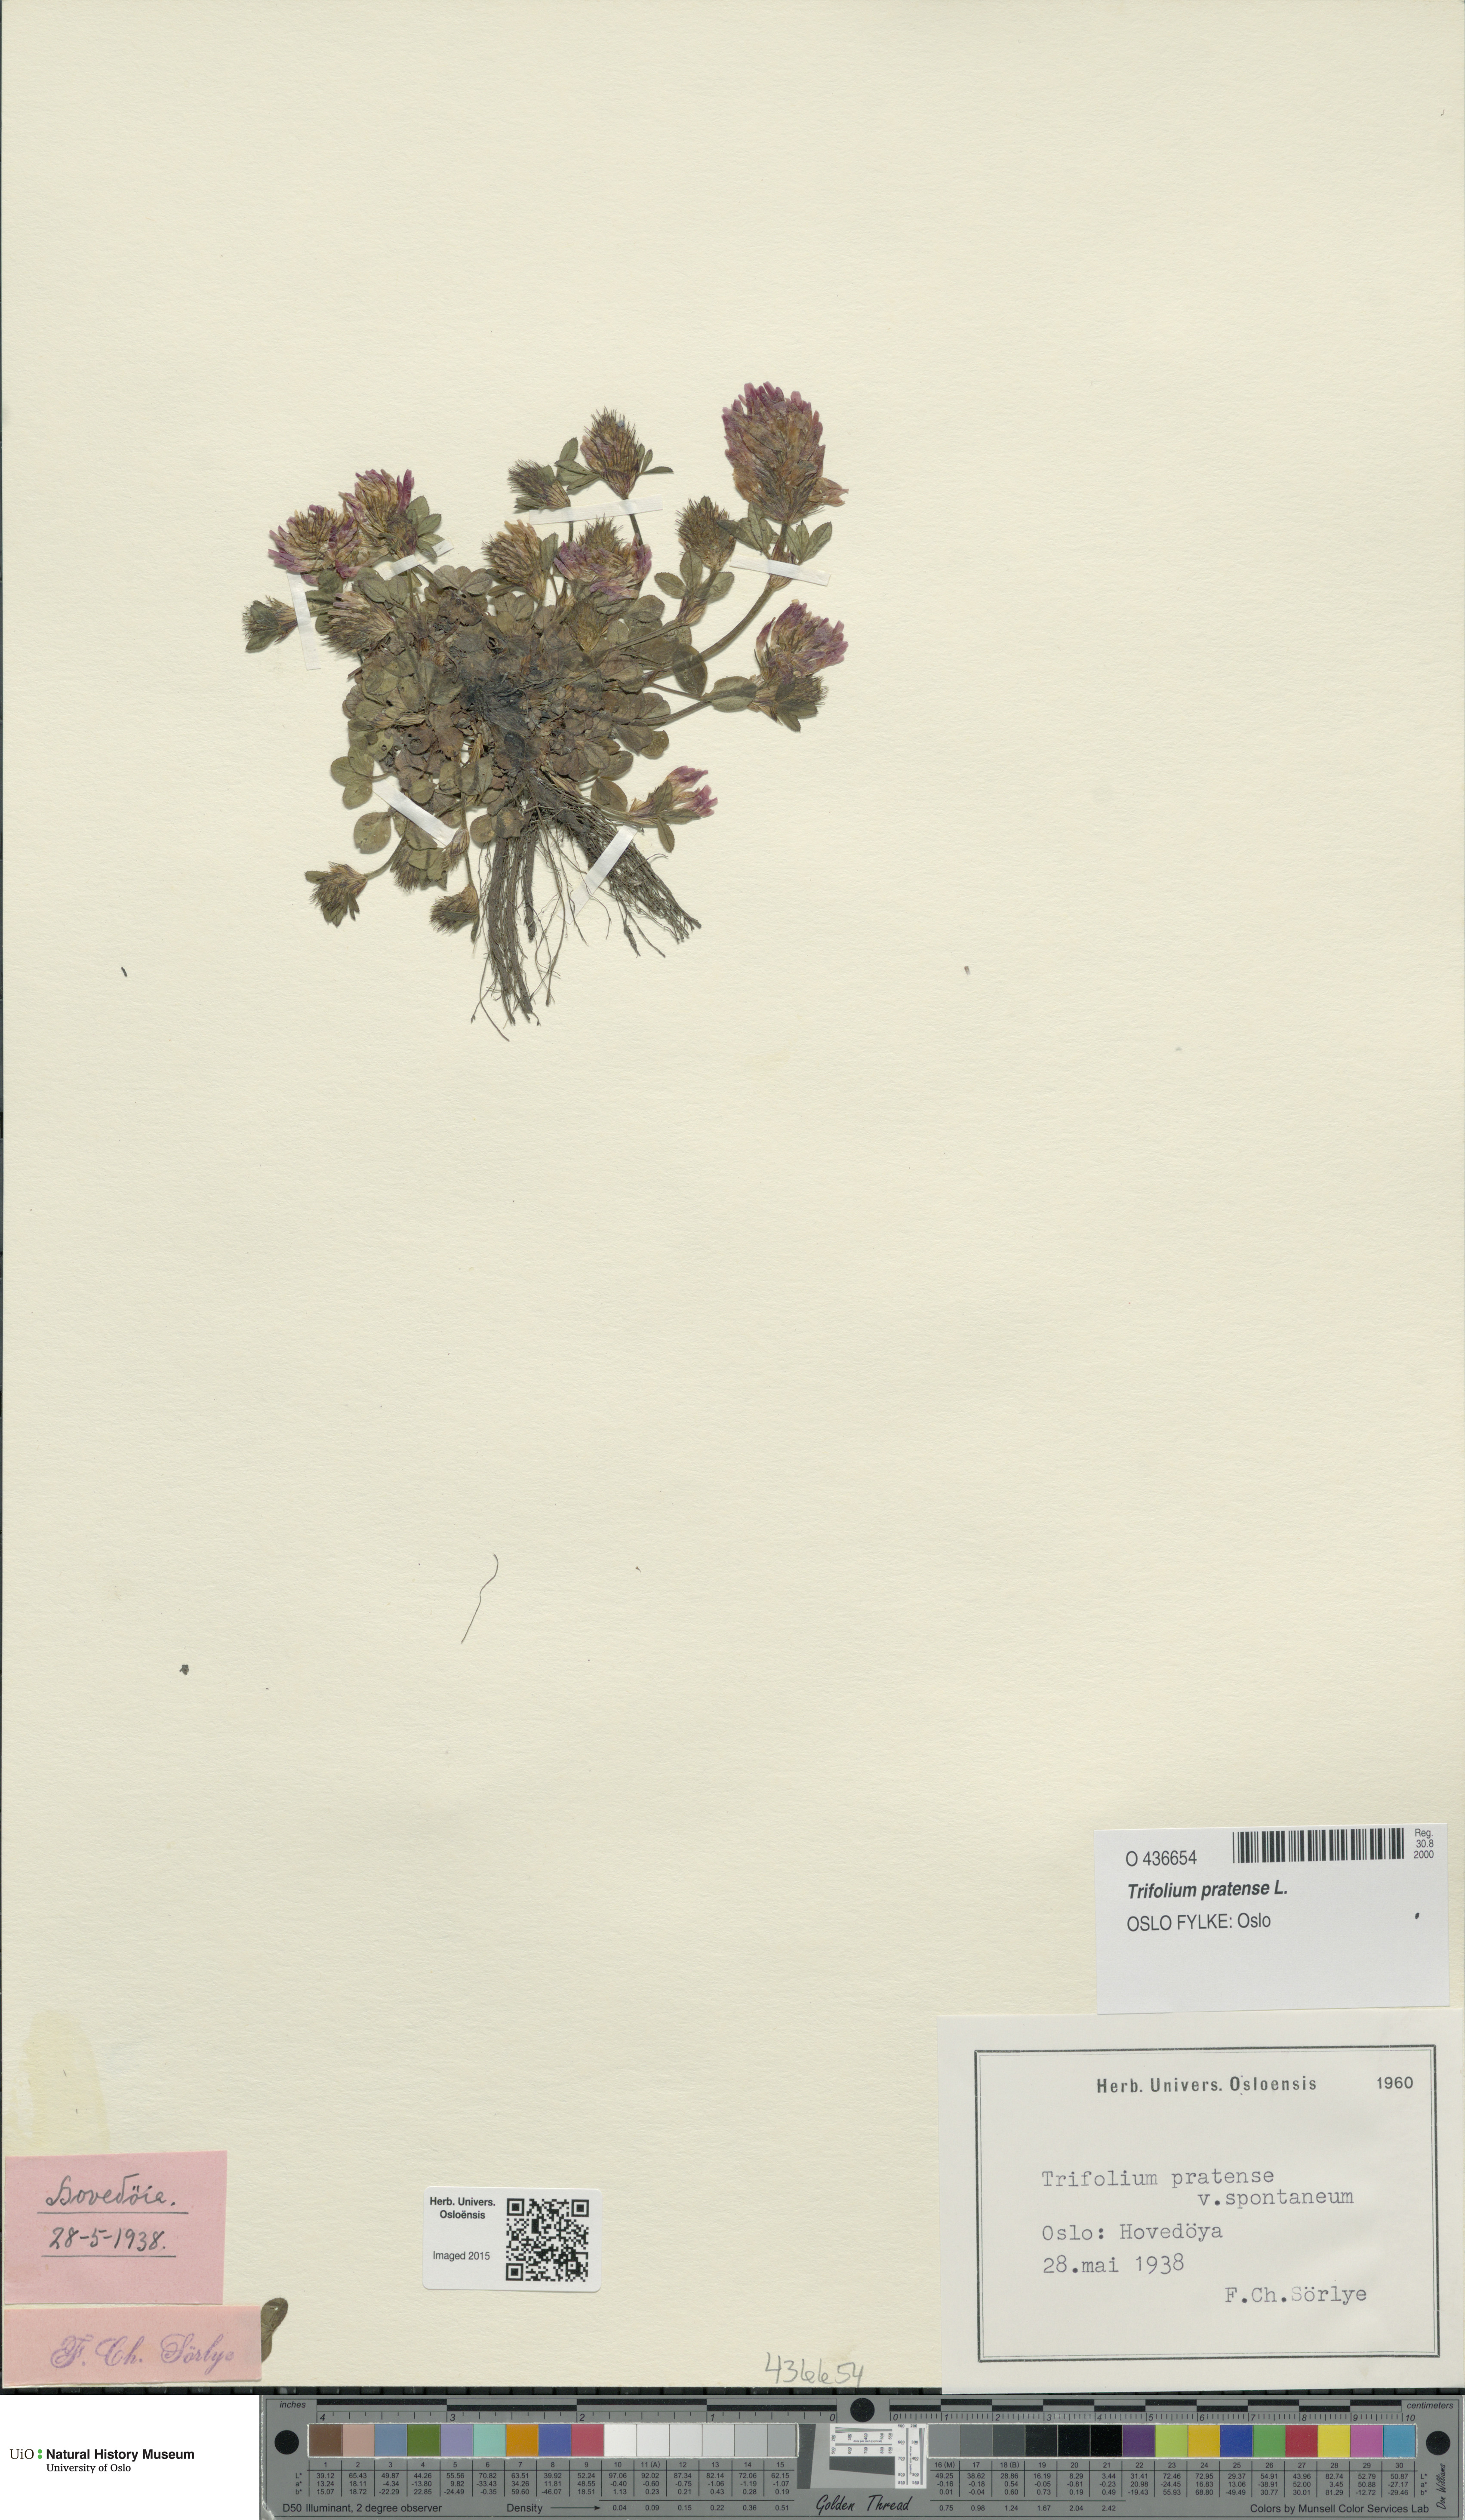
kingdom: Plantae
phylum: Tracheophyta
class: Magnoliopsida
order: Fabales
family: Fabaceae
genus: Trifolium
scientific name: Trifolium pratense
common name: Red clover
